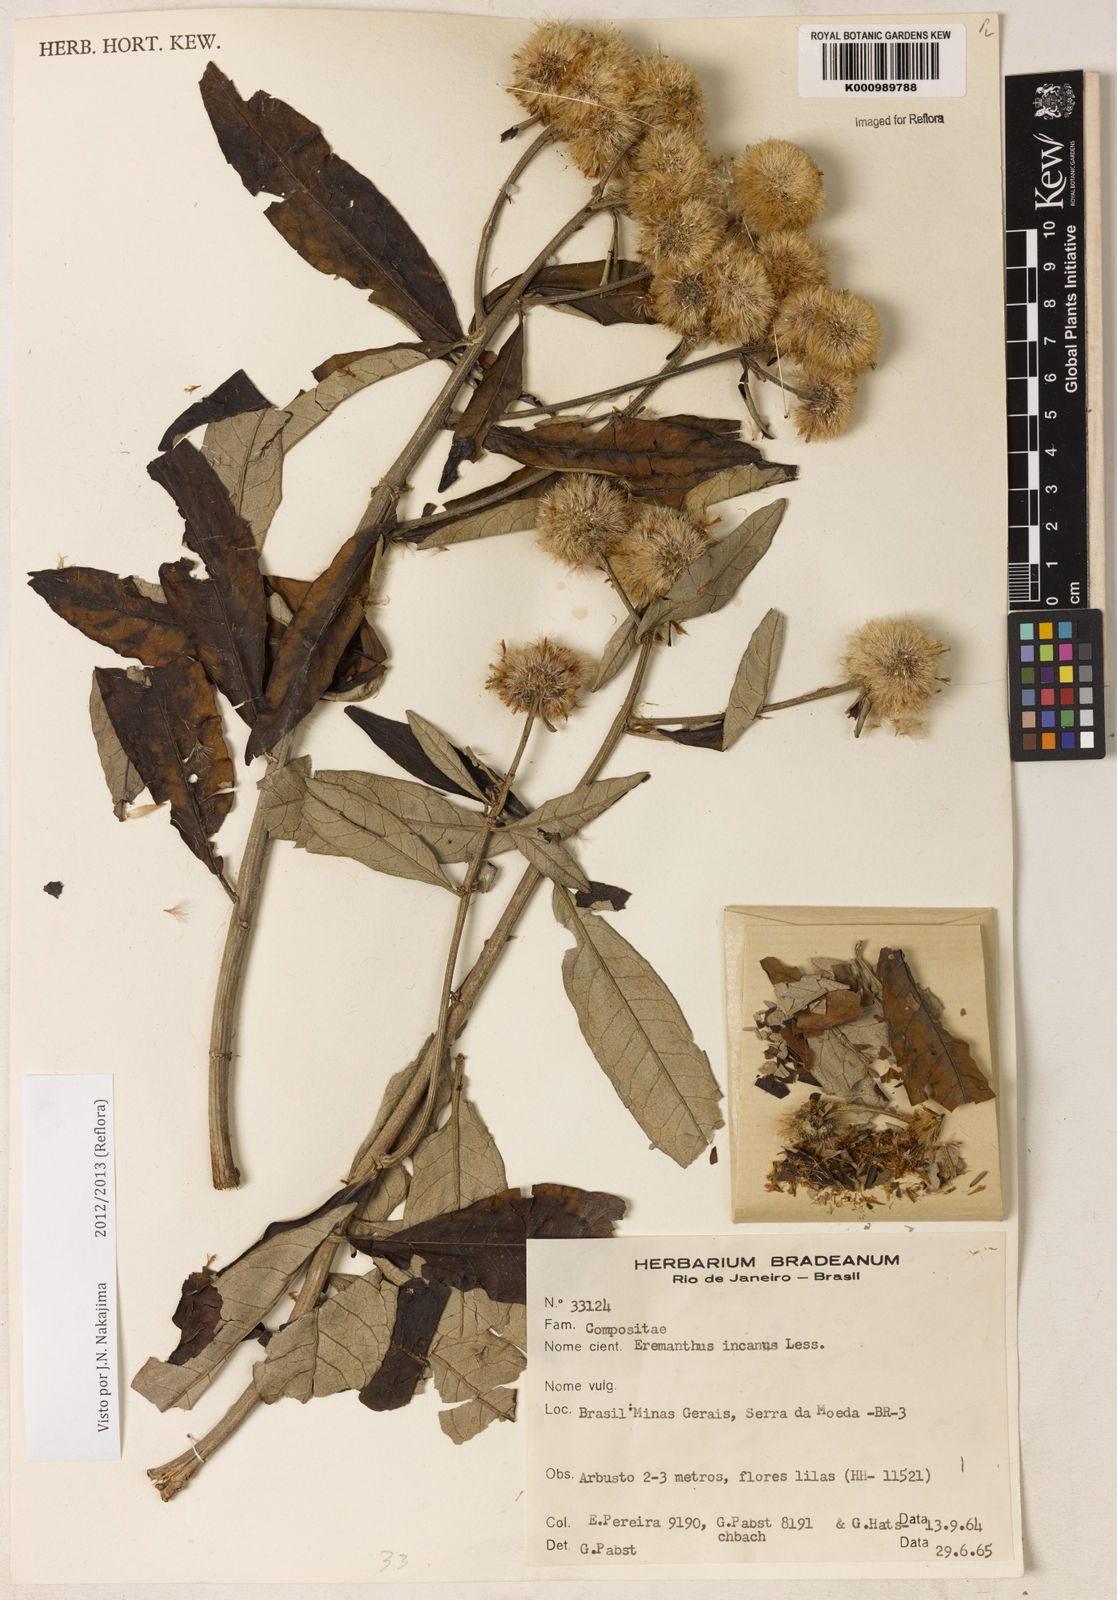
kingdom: Plantae
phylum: Tracheophyta
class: Magnoliopsida
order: Asterales
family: Asteraceae
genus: Eremanthus
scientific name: Eremanthus incanus
